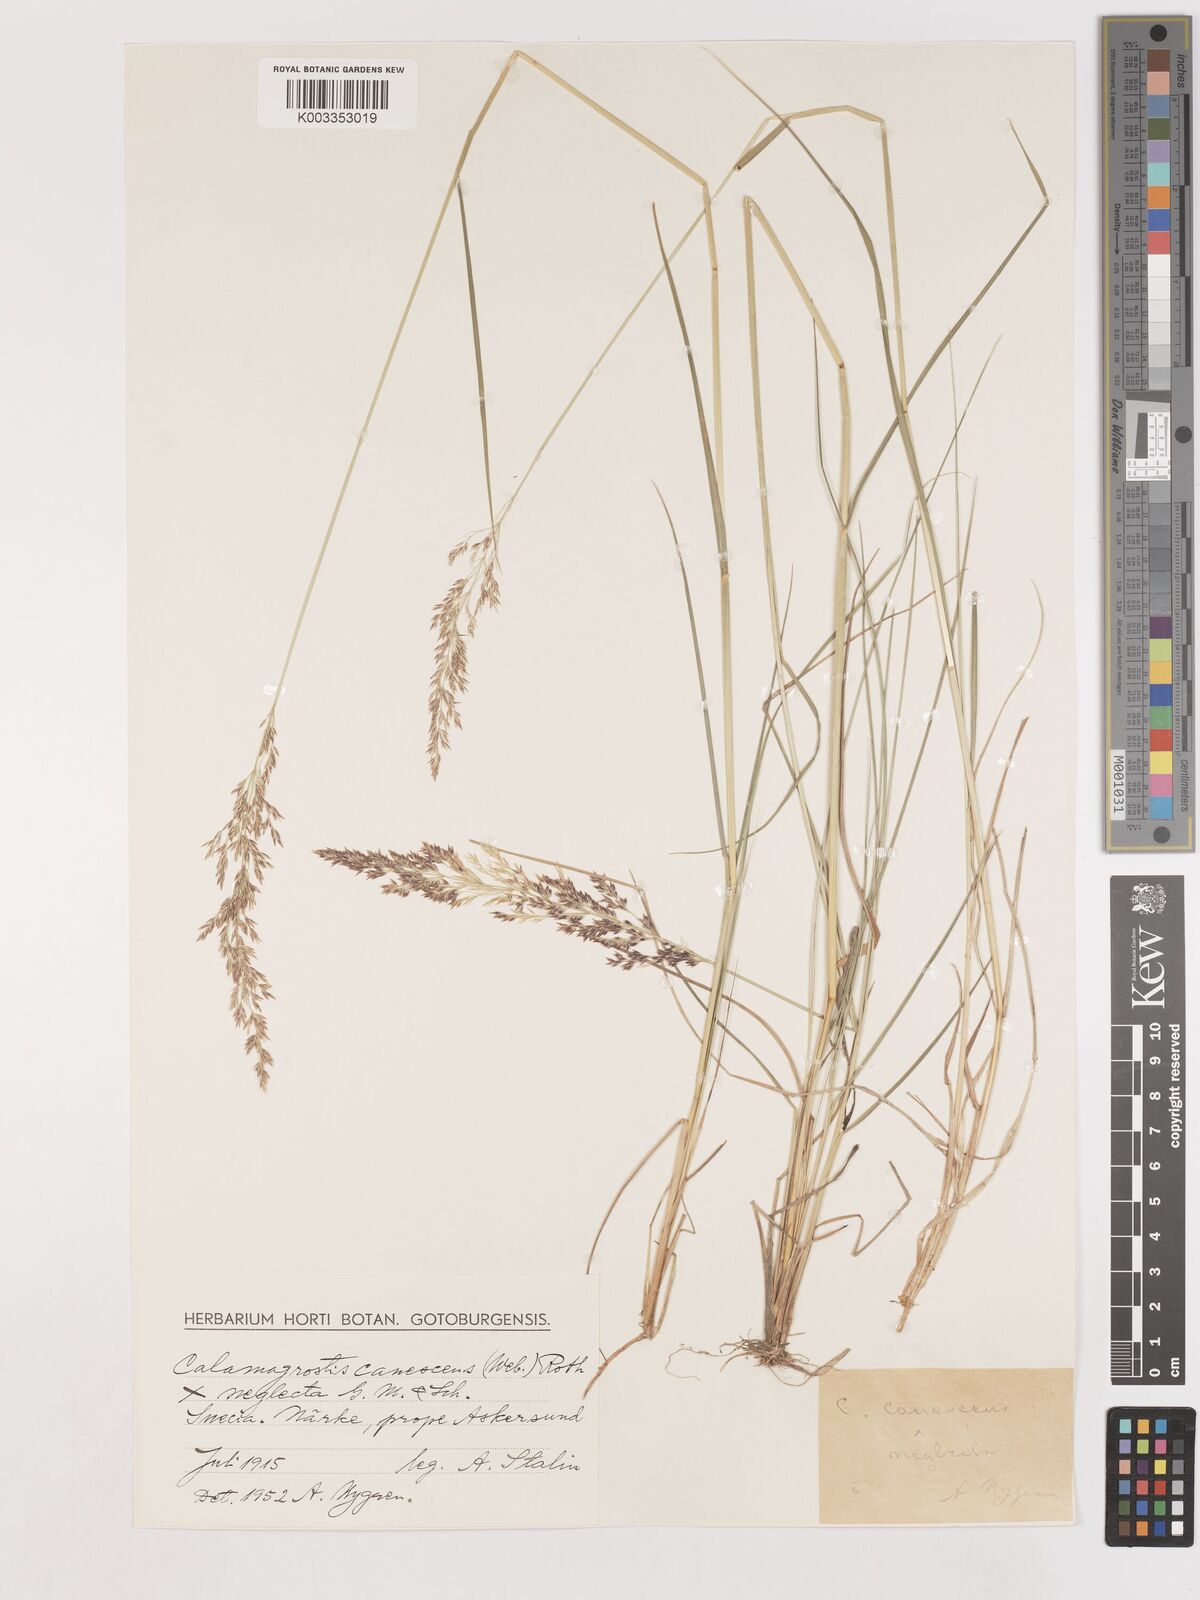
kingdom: Plantae
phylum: Tracheophyta
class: Liliopsida
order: Poales
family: Poaceae
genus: Calamagrostis
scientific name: Calamagrostis canescens
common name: Purple small-reed
